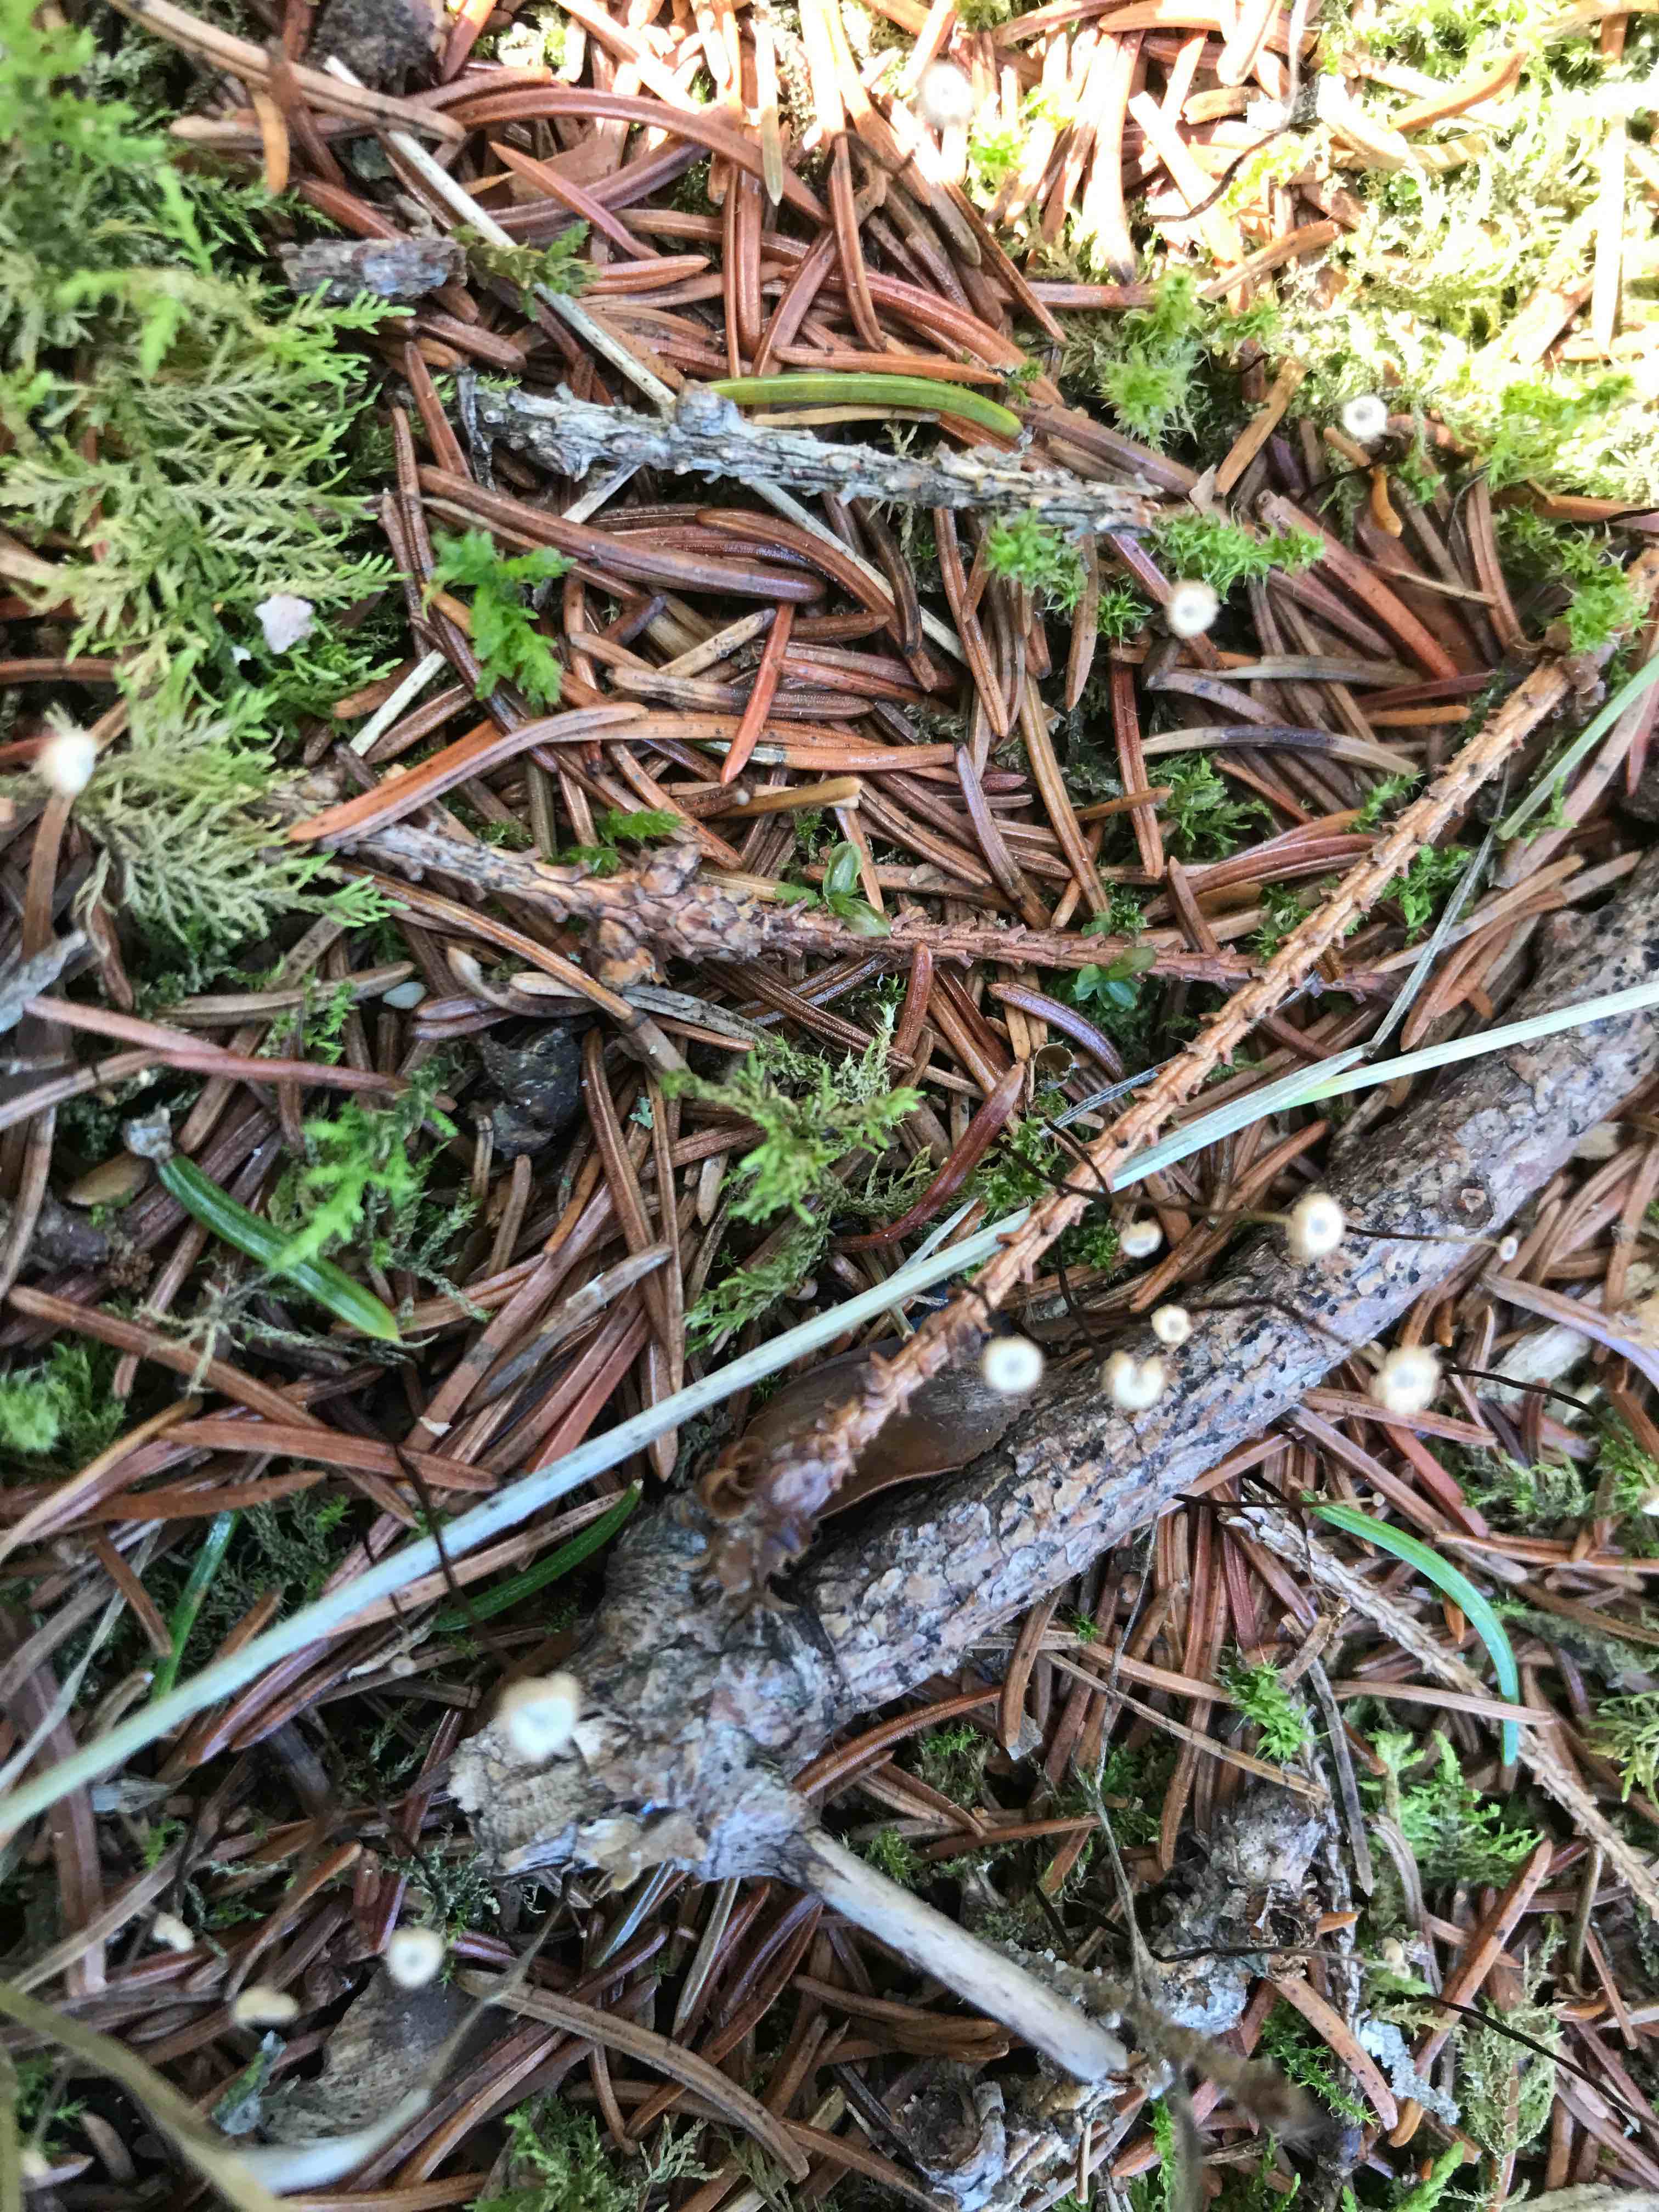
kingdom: Fungi
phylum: Basidiomycota
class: Agaricomycetes
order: Agaricales
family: Marasmiaceae
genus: Marasmius
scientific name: Marasmius wettsteinii
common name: Wettsteins bruskhat
